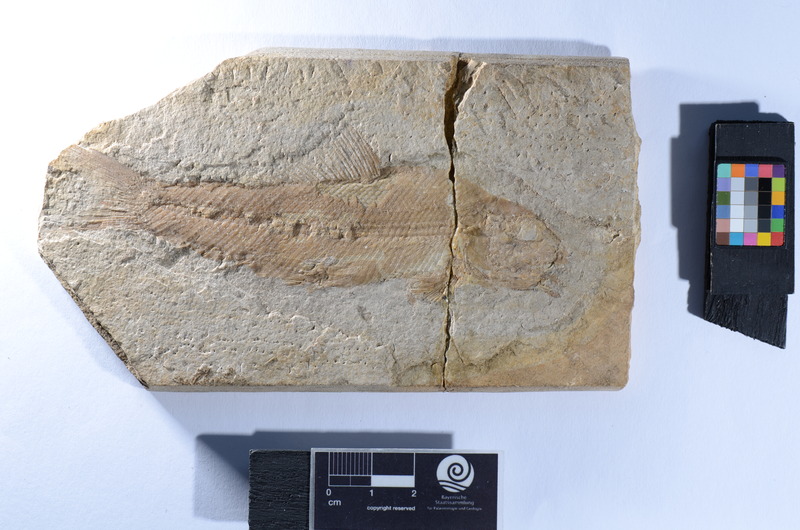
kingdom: Animalia
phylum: Chordata
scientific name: Chordata
